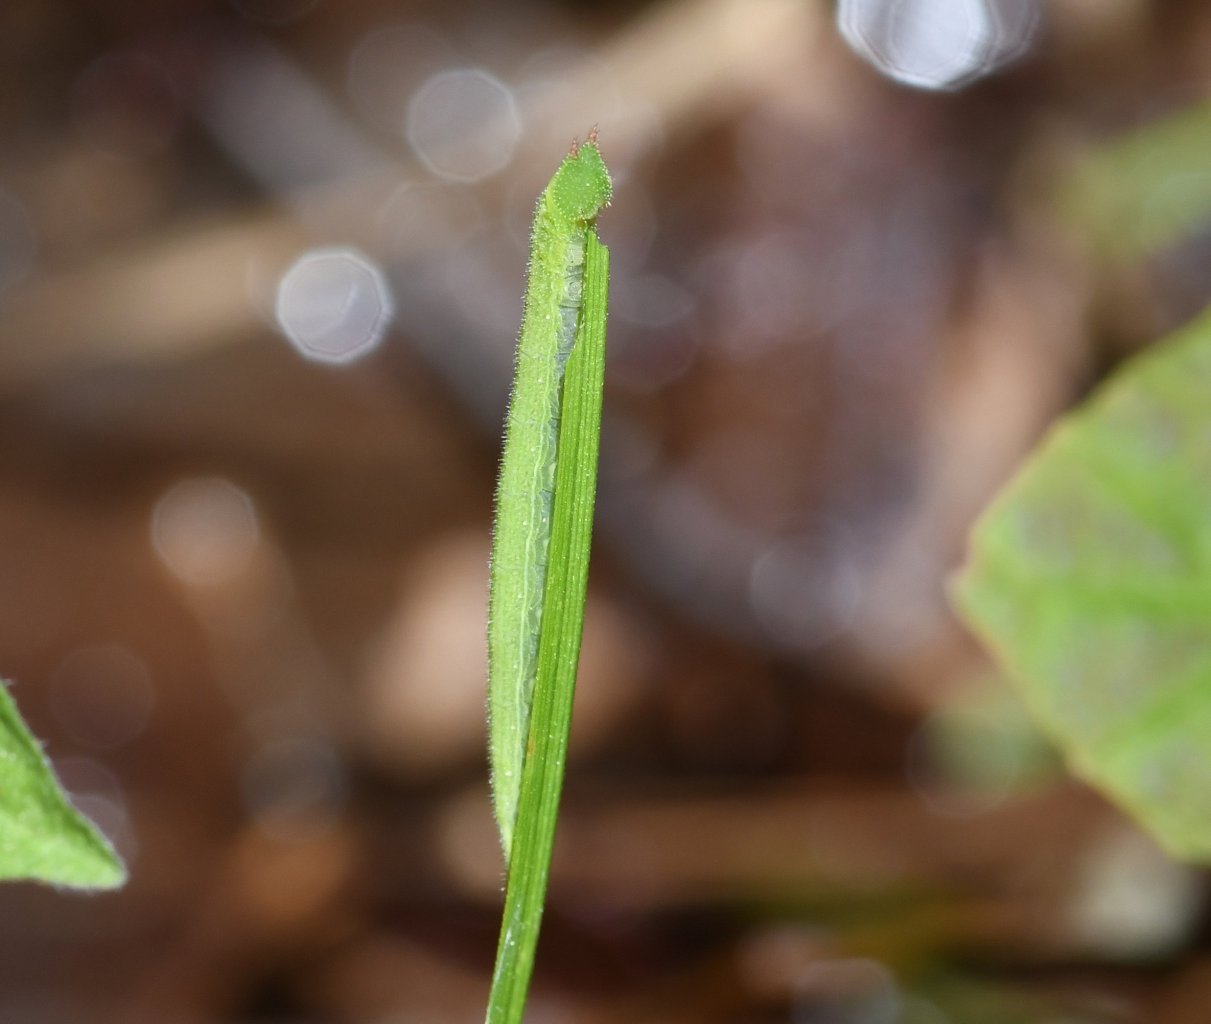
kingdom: Animalia
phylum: Arthropoda
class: Insecta
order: Lepidoptera
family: Nymphalidae
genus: Lethe
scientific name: Lethe anthedon
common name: Northern Pearly-Eye
